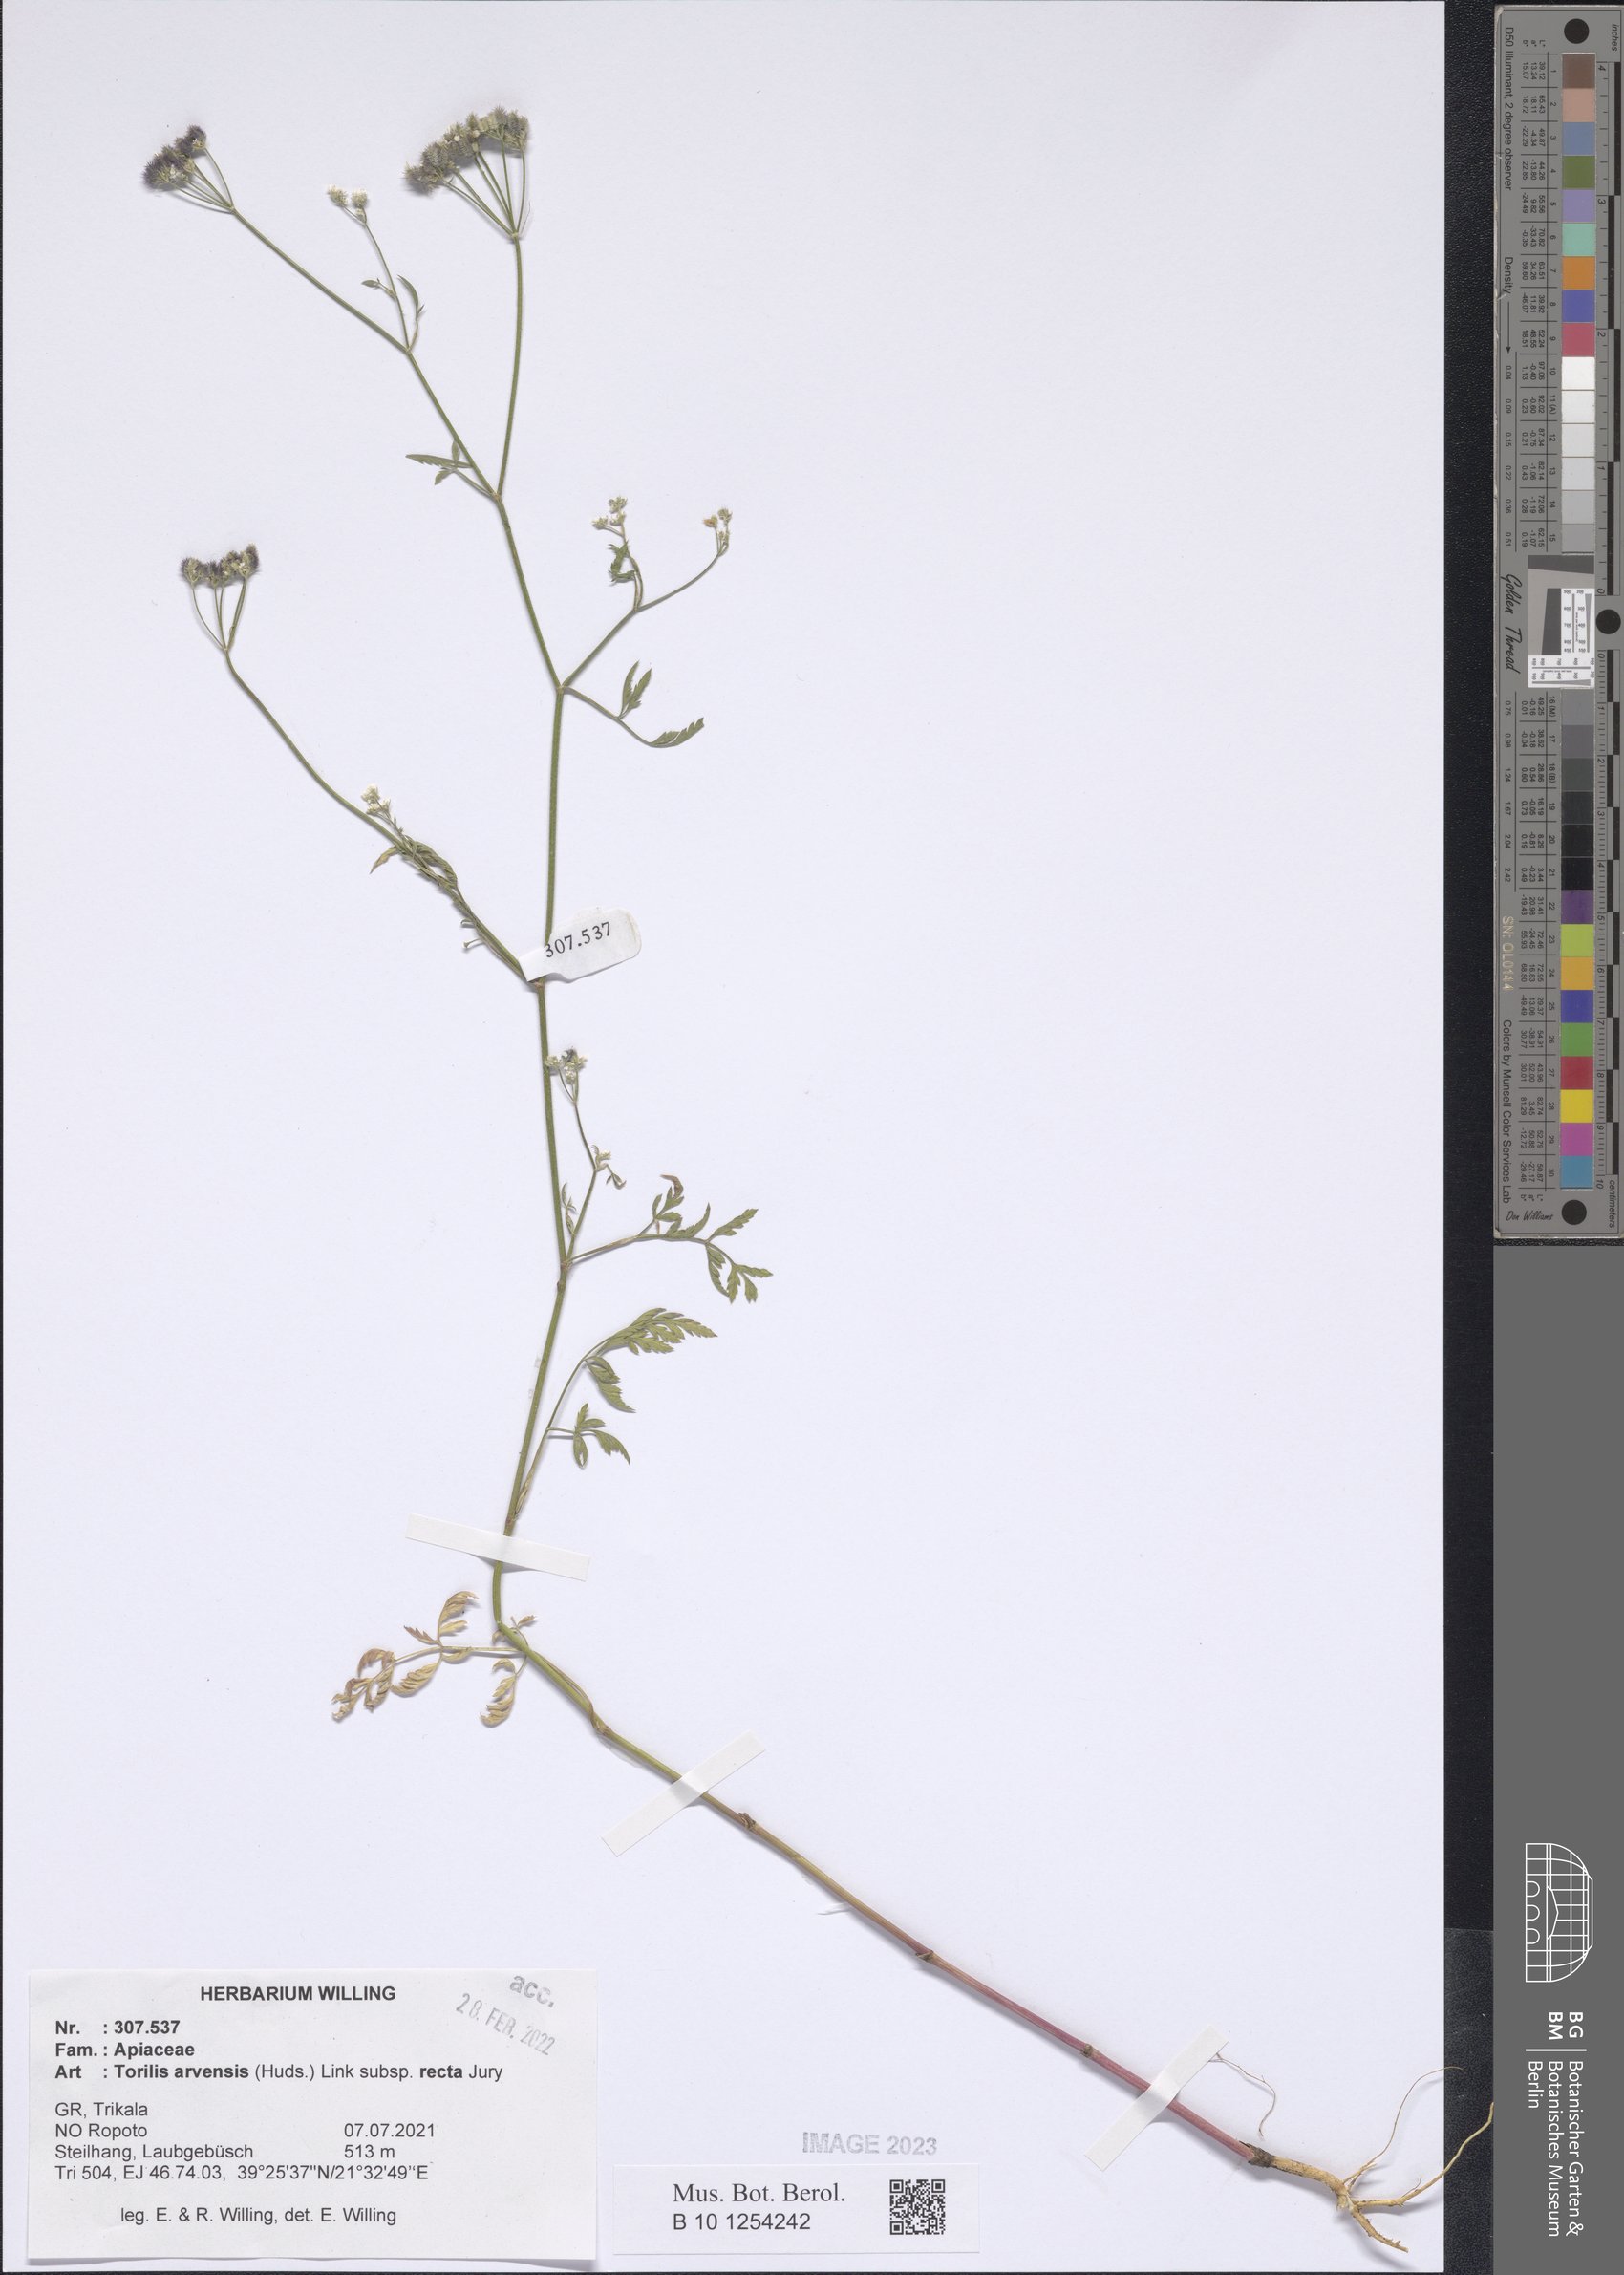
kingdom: Plantae
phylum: Tracheophyta
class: Magnoliopsida
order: Apiales
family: Apiaceae
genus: Torilis
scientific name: Torilis arvensis
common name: Spreading hedge-parsley
